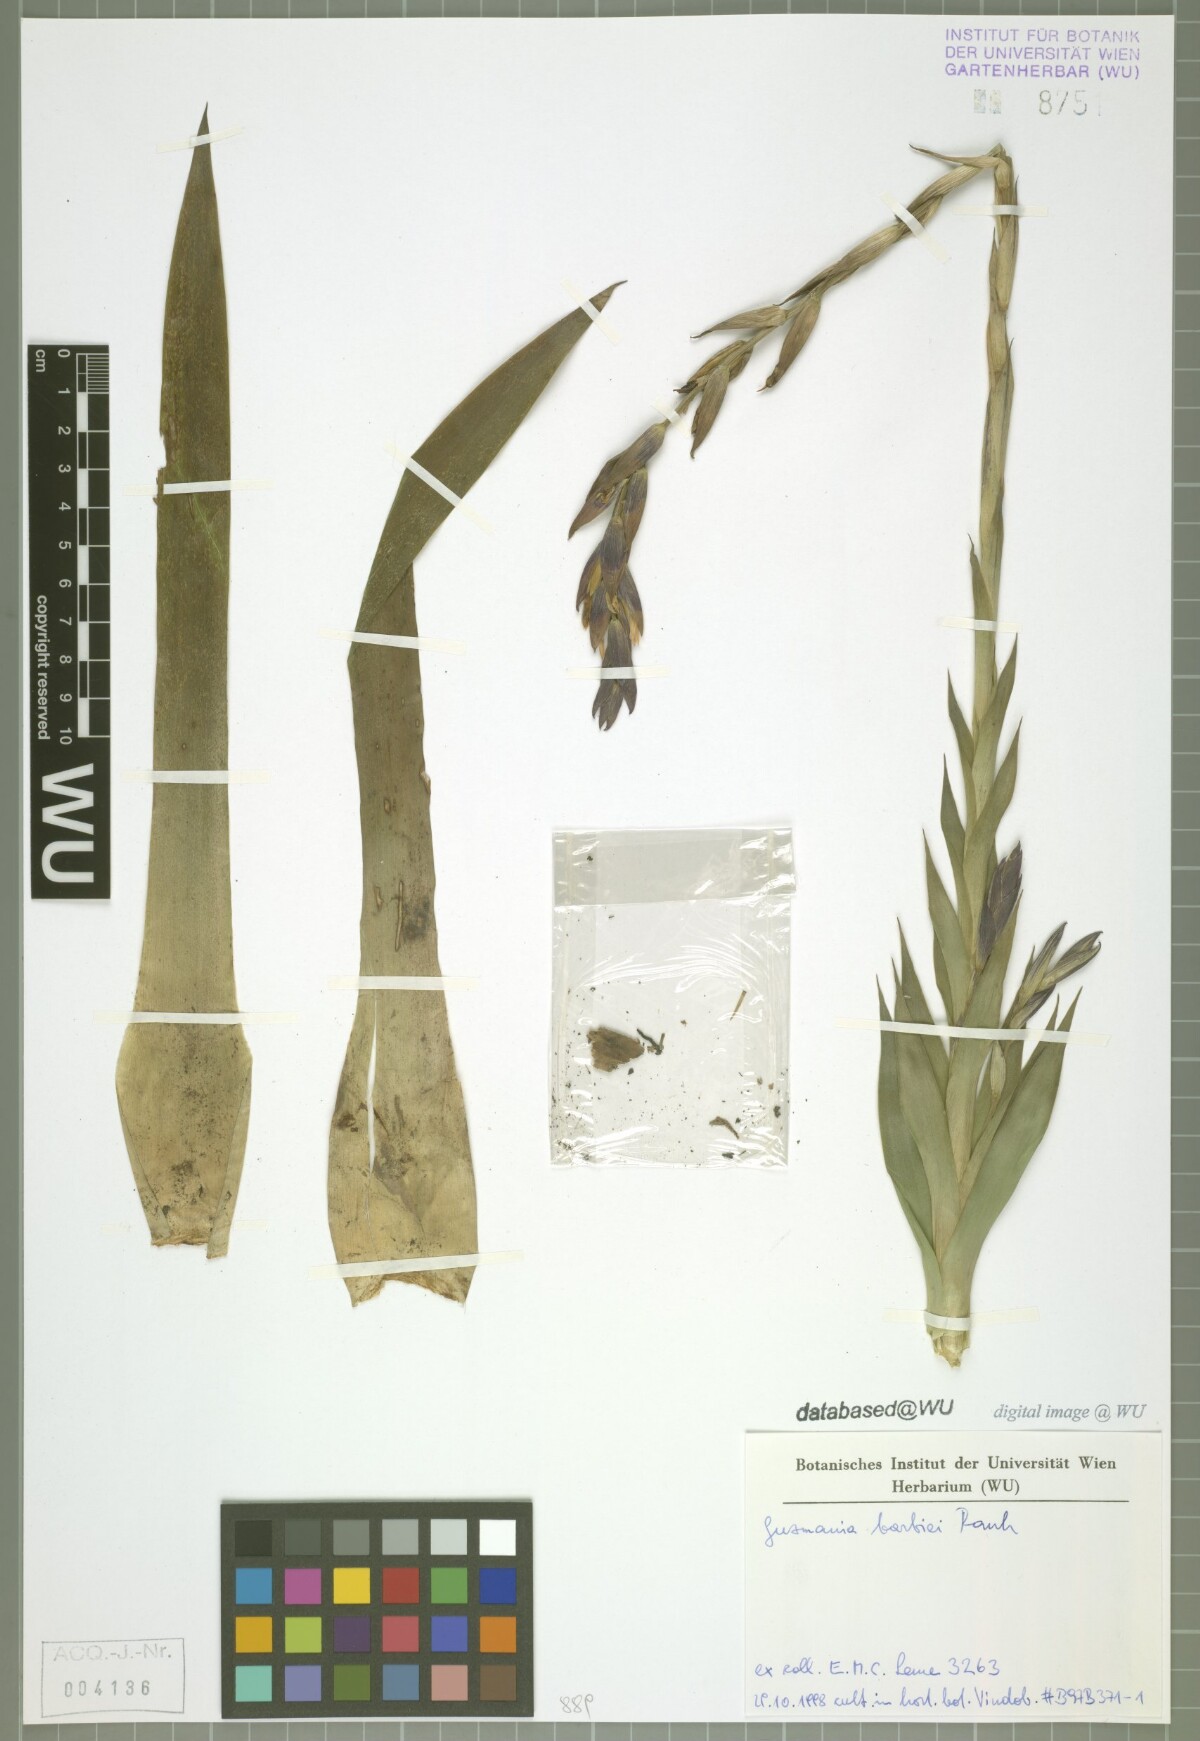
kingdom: Plantae
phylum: Tracheophyta
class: Liliopsida
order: Poales
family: Bromeliaceae
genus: Guzlandsia
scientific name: Guzlandsia barbiei
